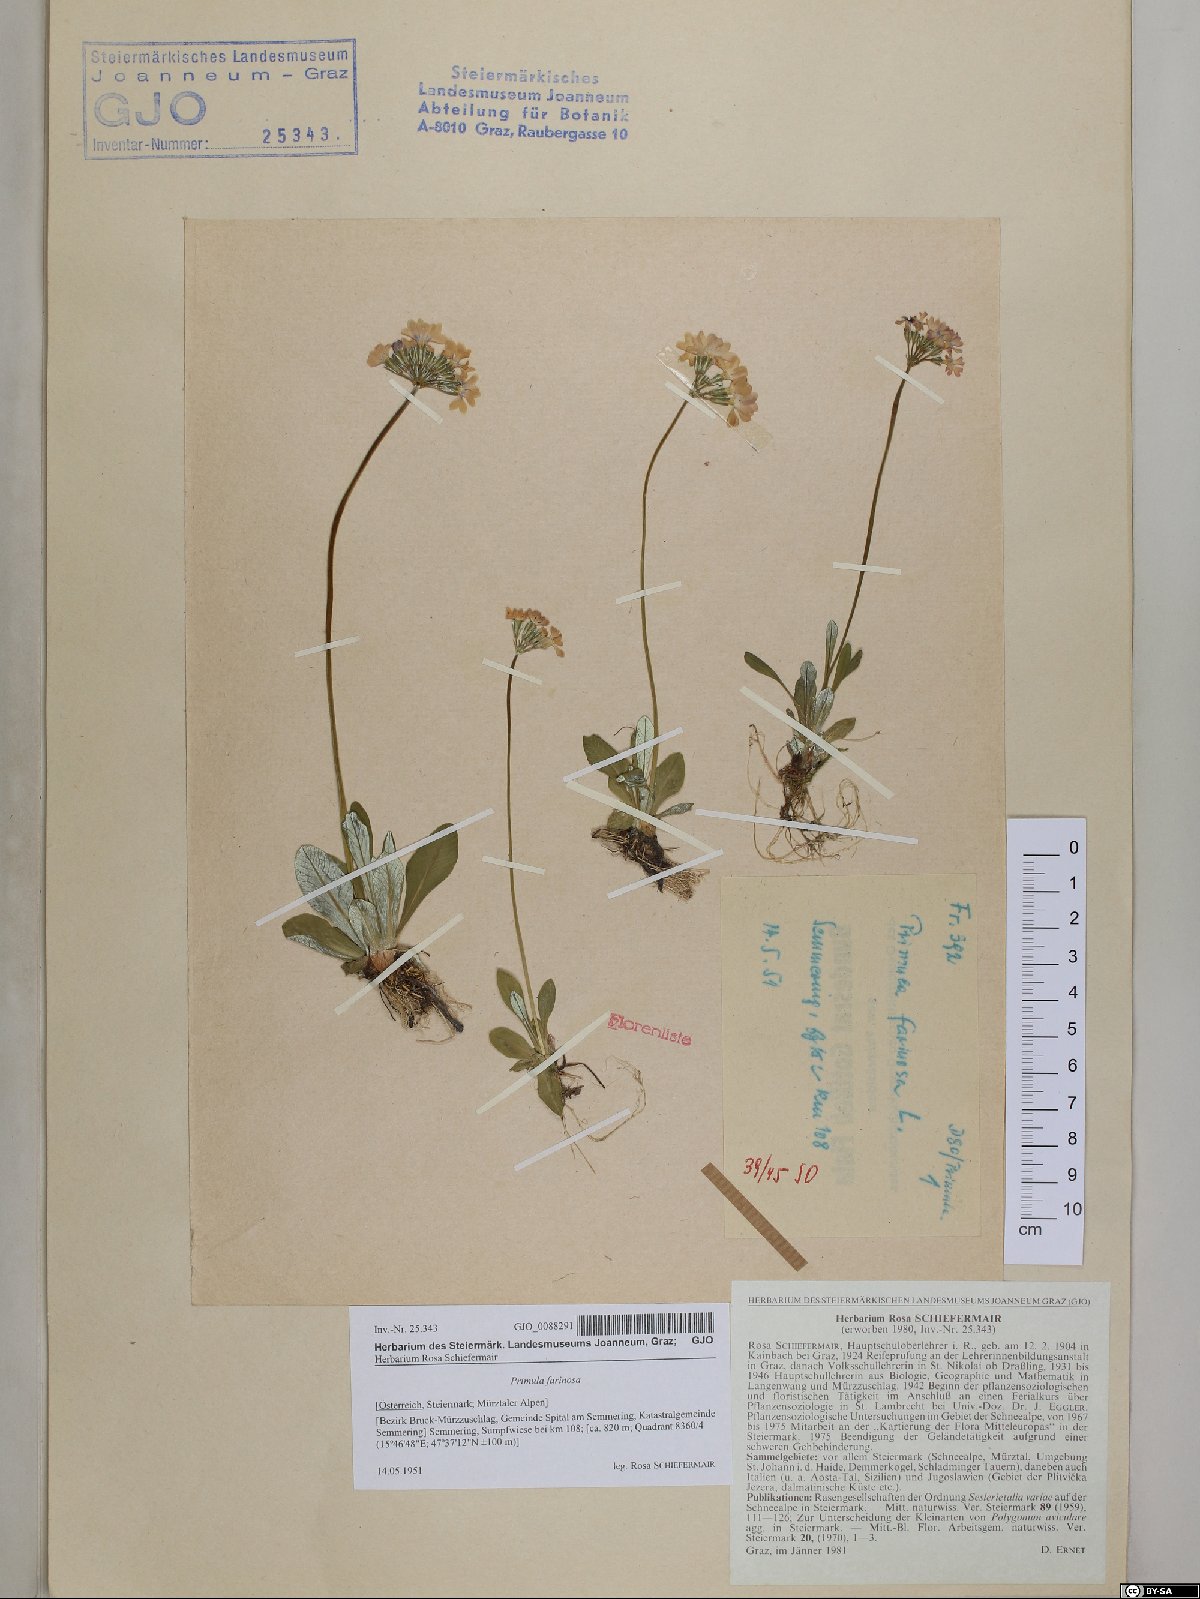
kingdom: Plantae
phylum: Tracheophyta
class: Magnoliopsida
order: Ericales
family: Primulaceae
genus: Primula
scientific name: Primula farinosa
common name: Bird's-eye primrose
